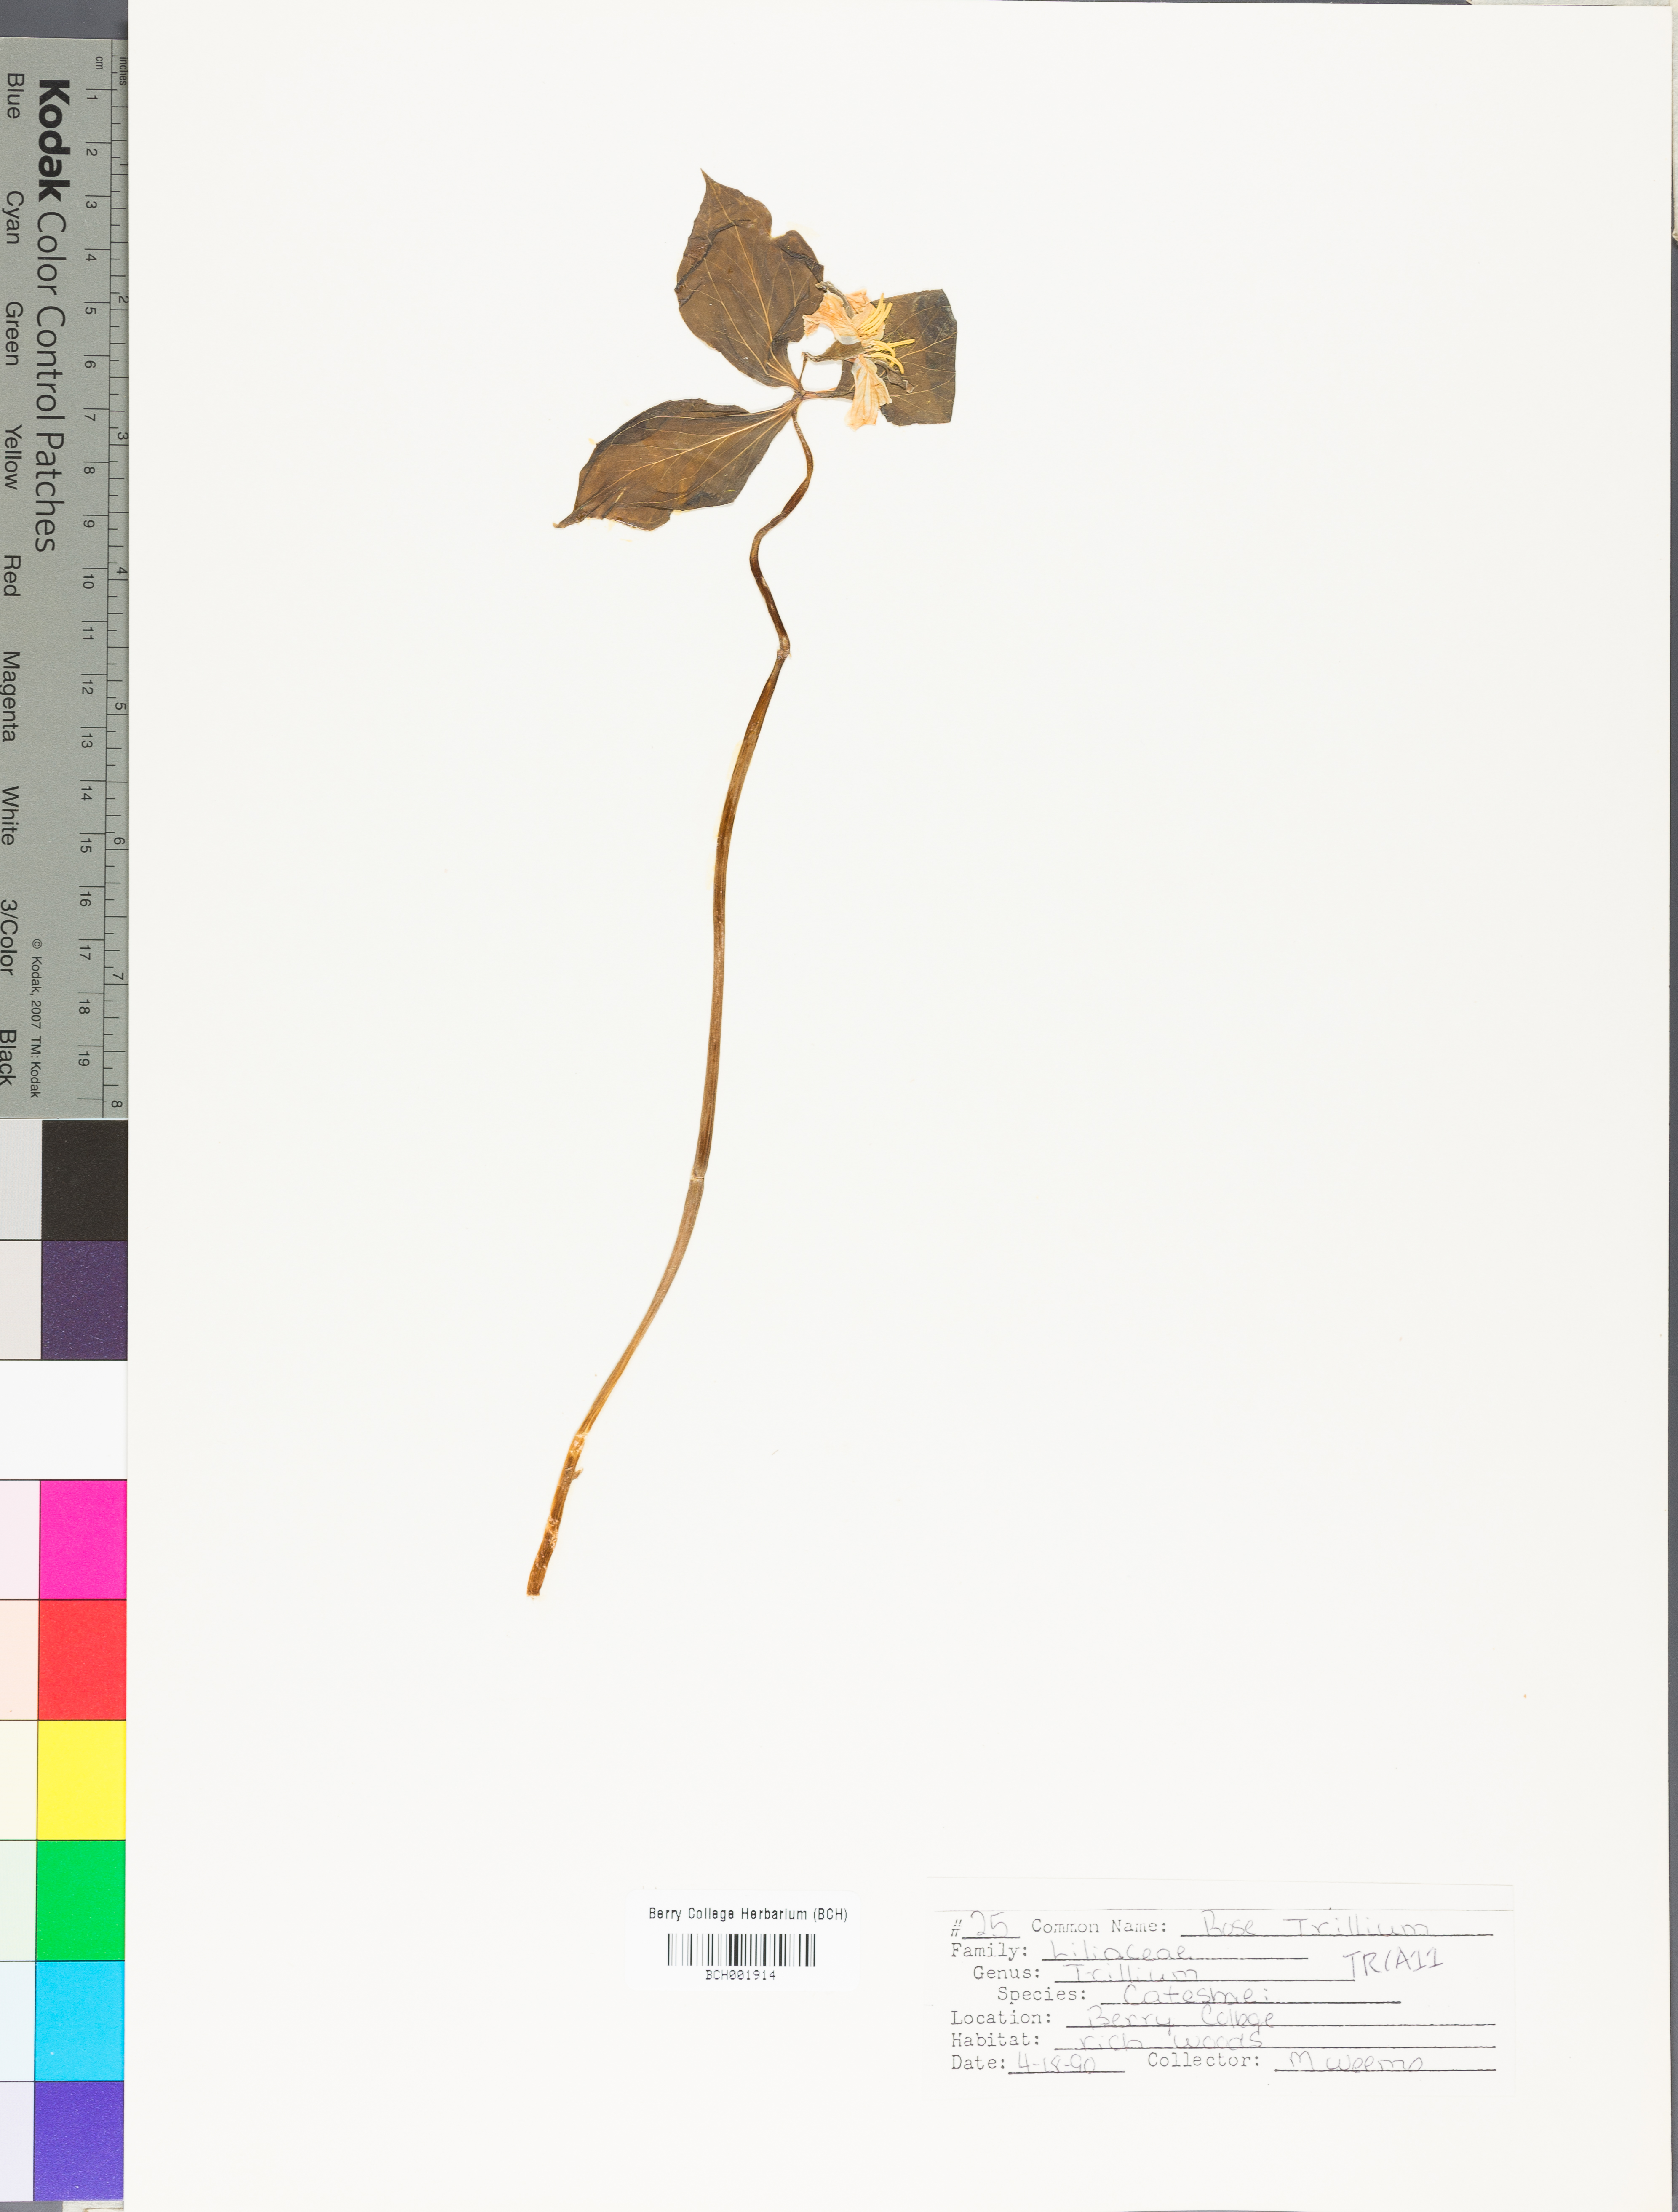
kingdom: Plantae
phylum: Tracheophyta
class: Liliopsida
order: Liliales
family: Melanthiaceae
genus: Trillium
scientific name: Trillium catesbaei
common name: Bashful trillium
